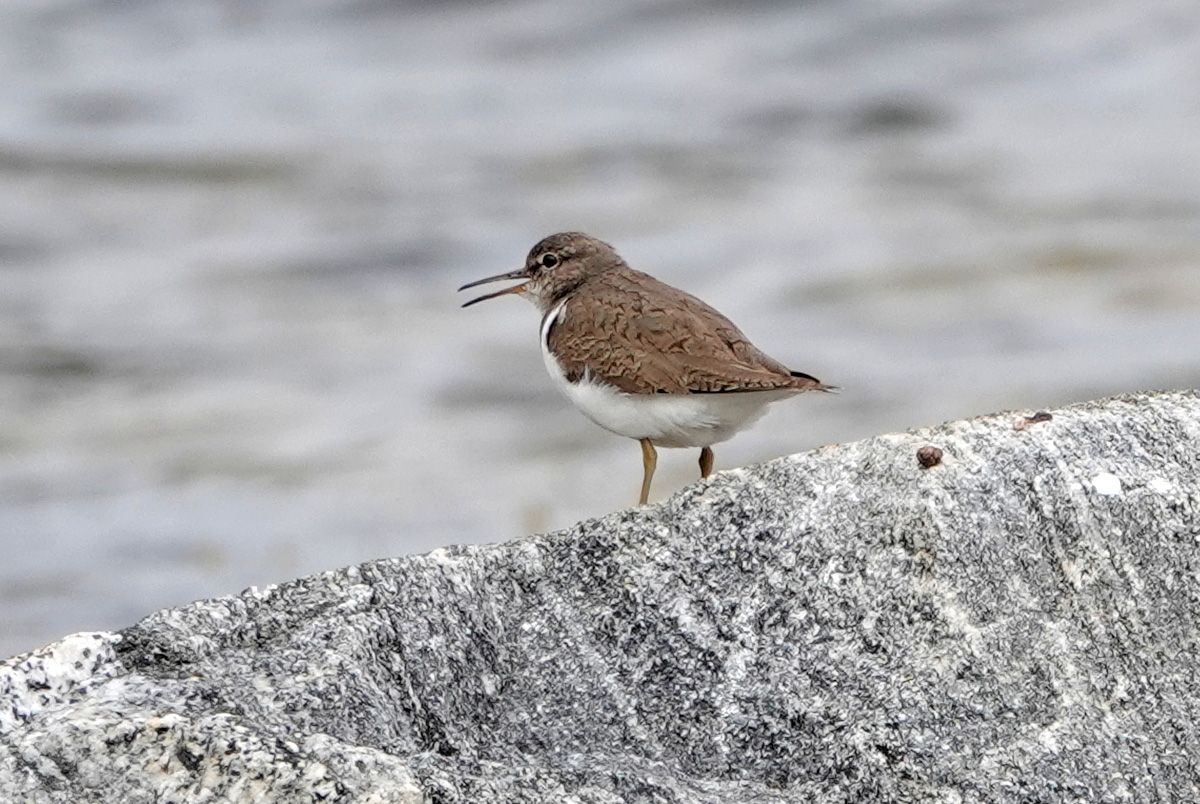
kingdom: Animalia
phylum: Chordata
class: Aves
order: Charadriiformes
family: Scolopacidae
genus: Actitis
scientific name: Actitis hypoleucos
